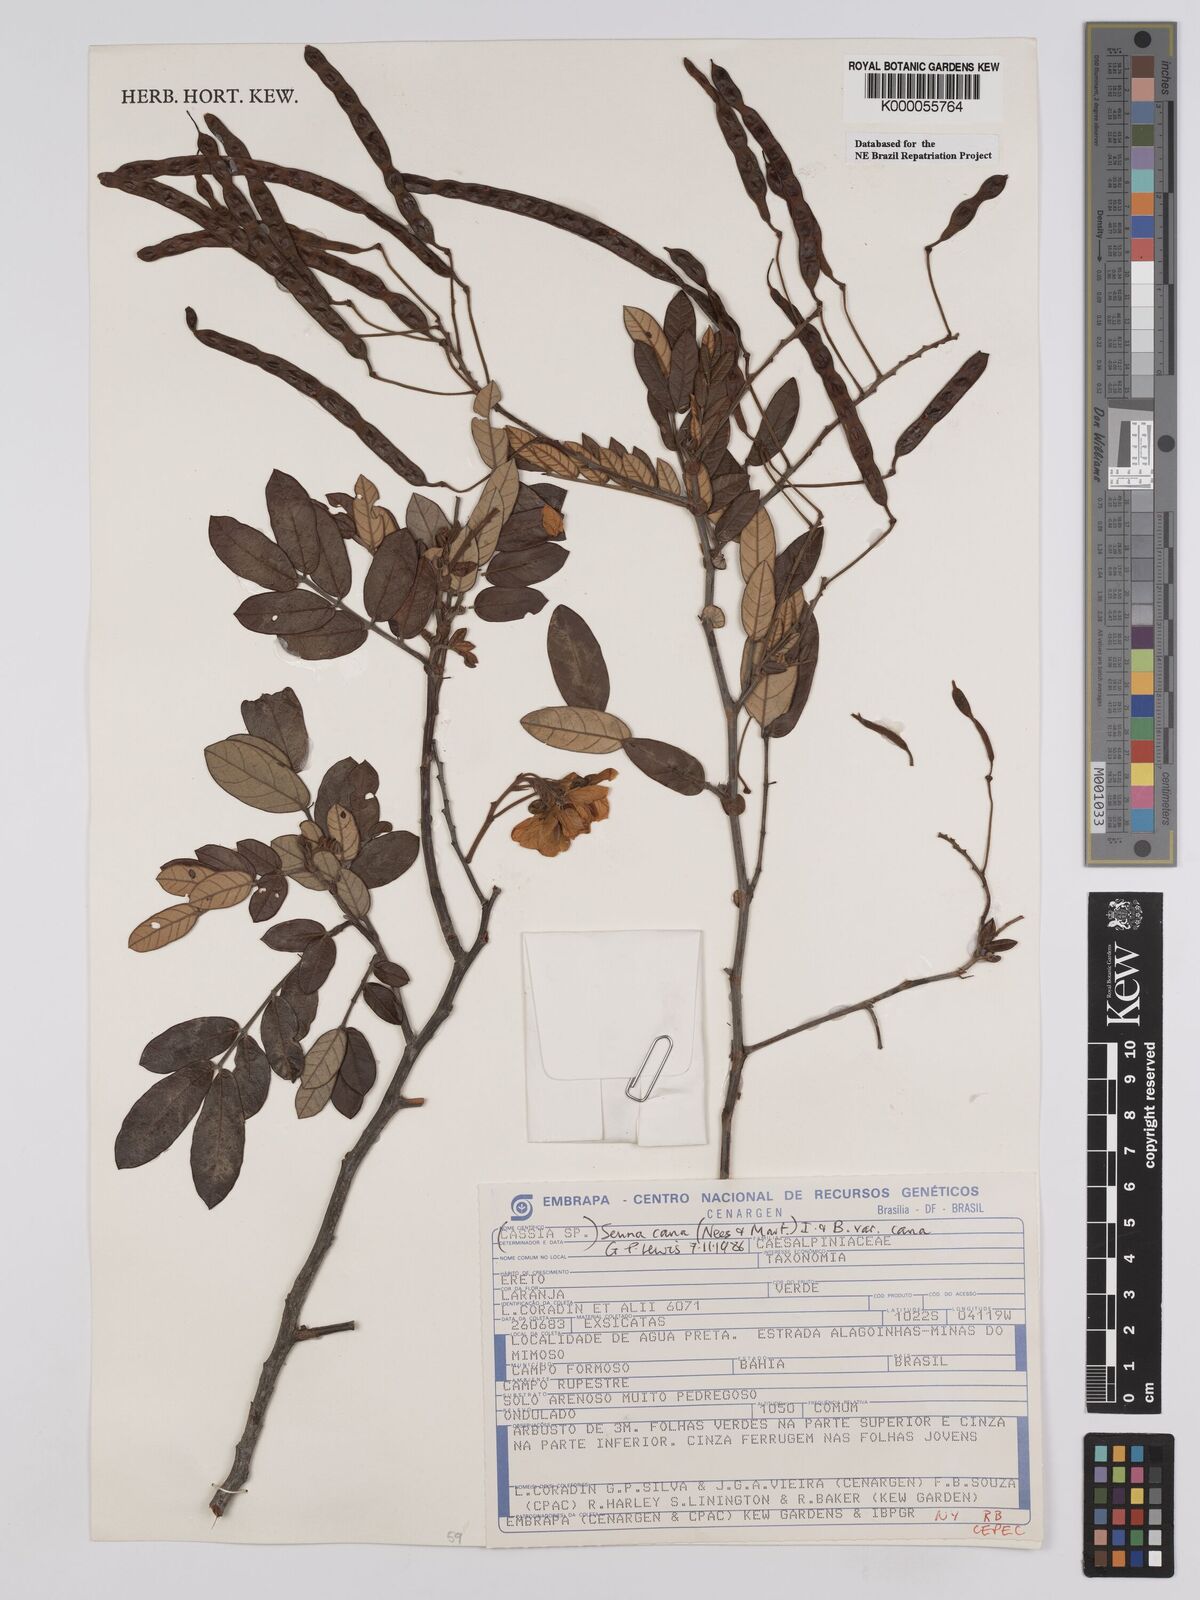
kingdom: Plantae
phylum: Tracheophyta
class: Magnoliopsida
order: Fabales
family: Fabaceae
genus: Senna
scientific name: Senna cana
